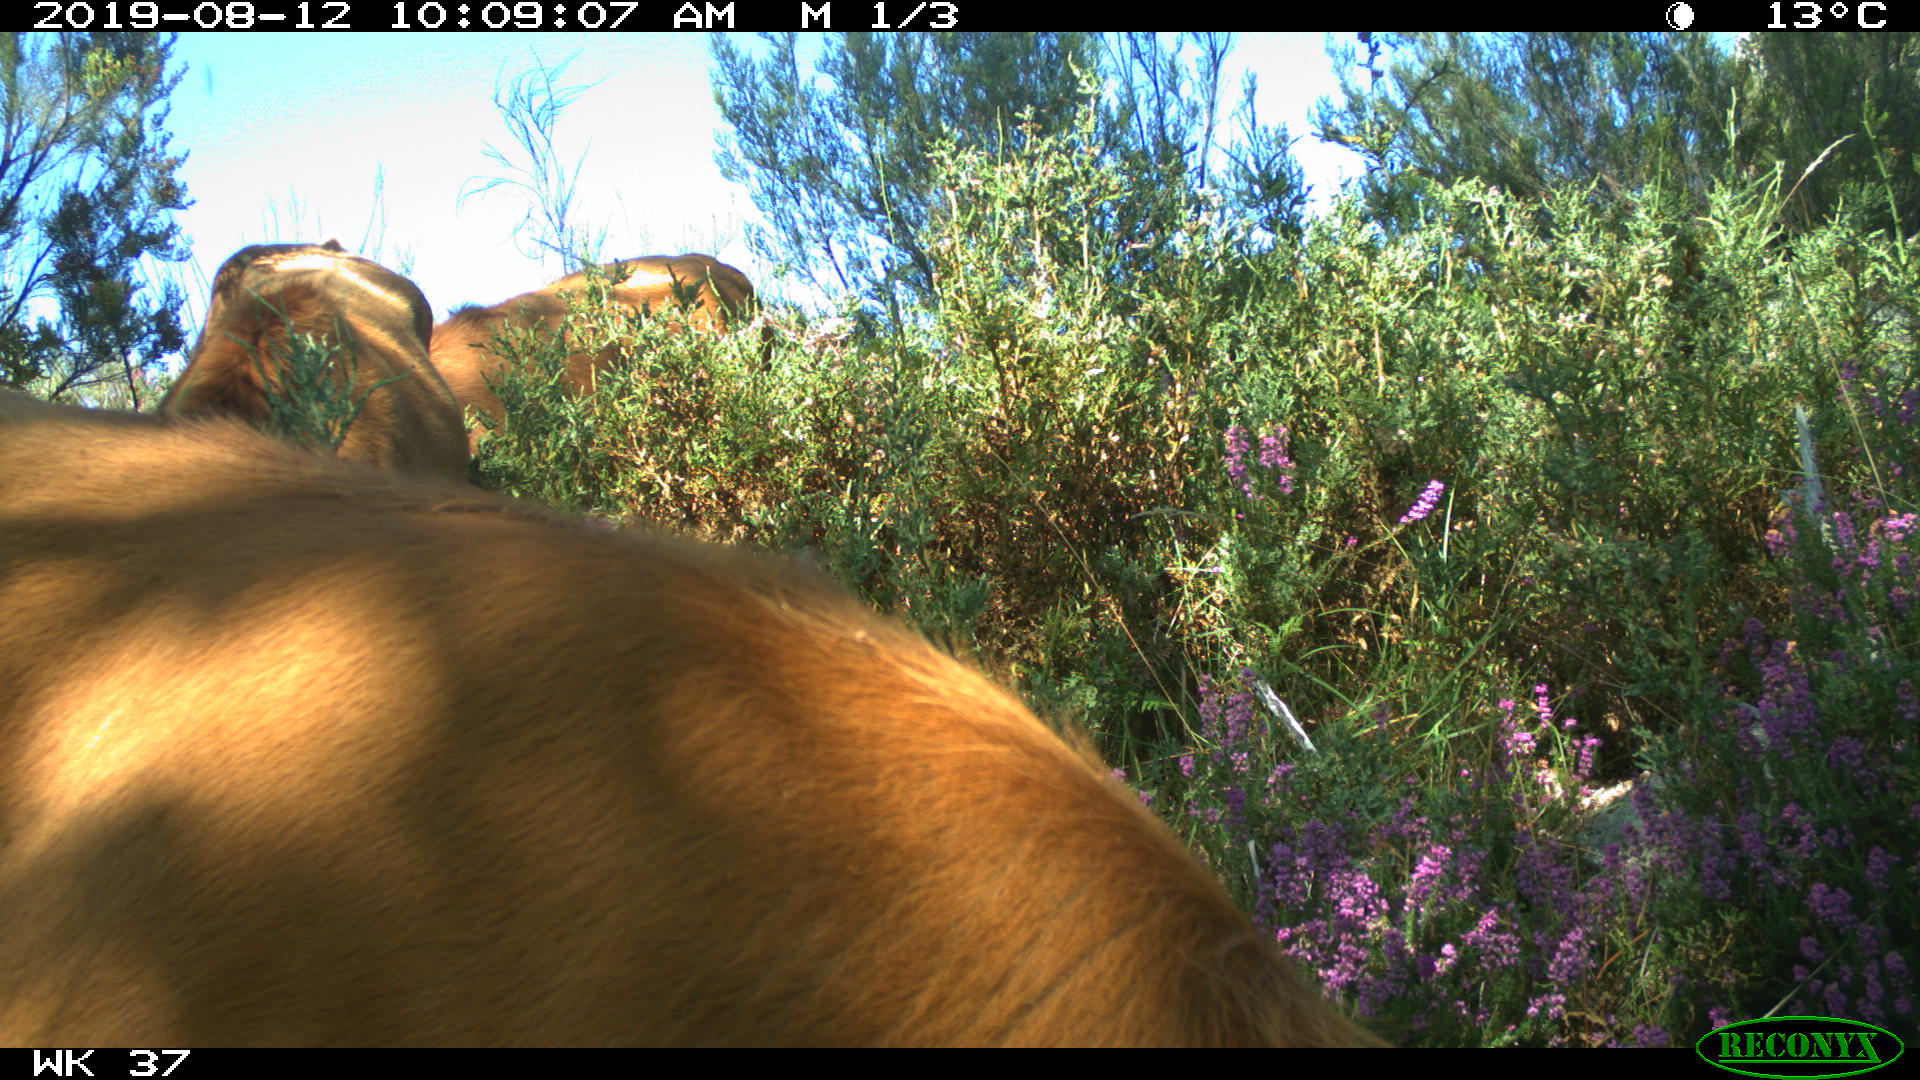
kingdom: Animalia
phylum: Chordata
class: Mammalia
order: Artiodactyla
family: Bovidae
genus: Bos
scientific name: Bos taurus
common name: Domesticated cattle
